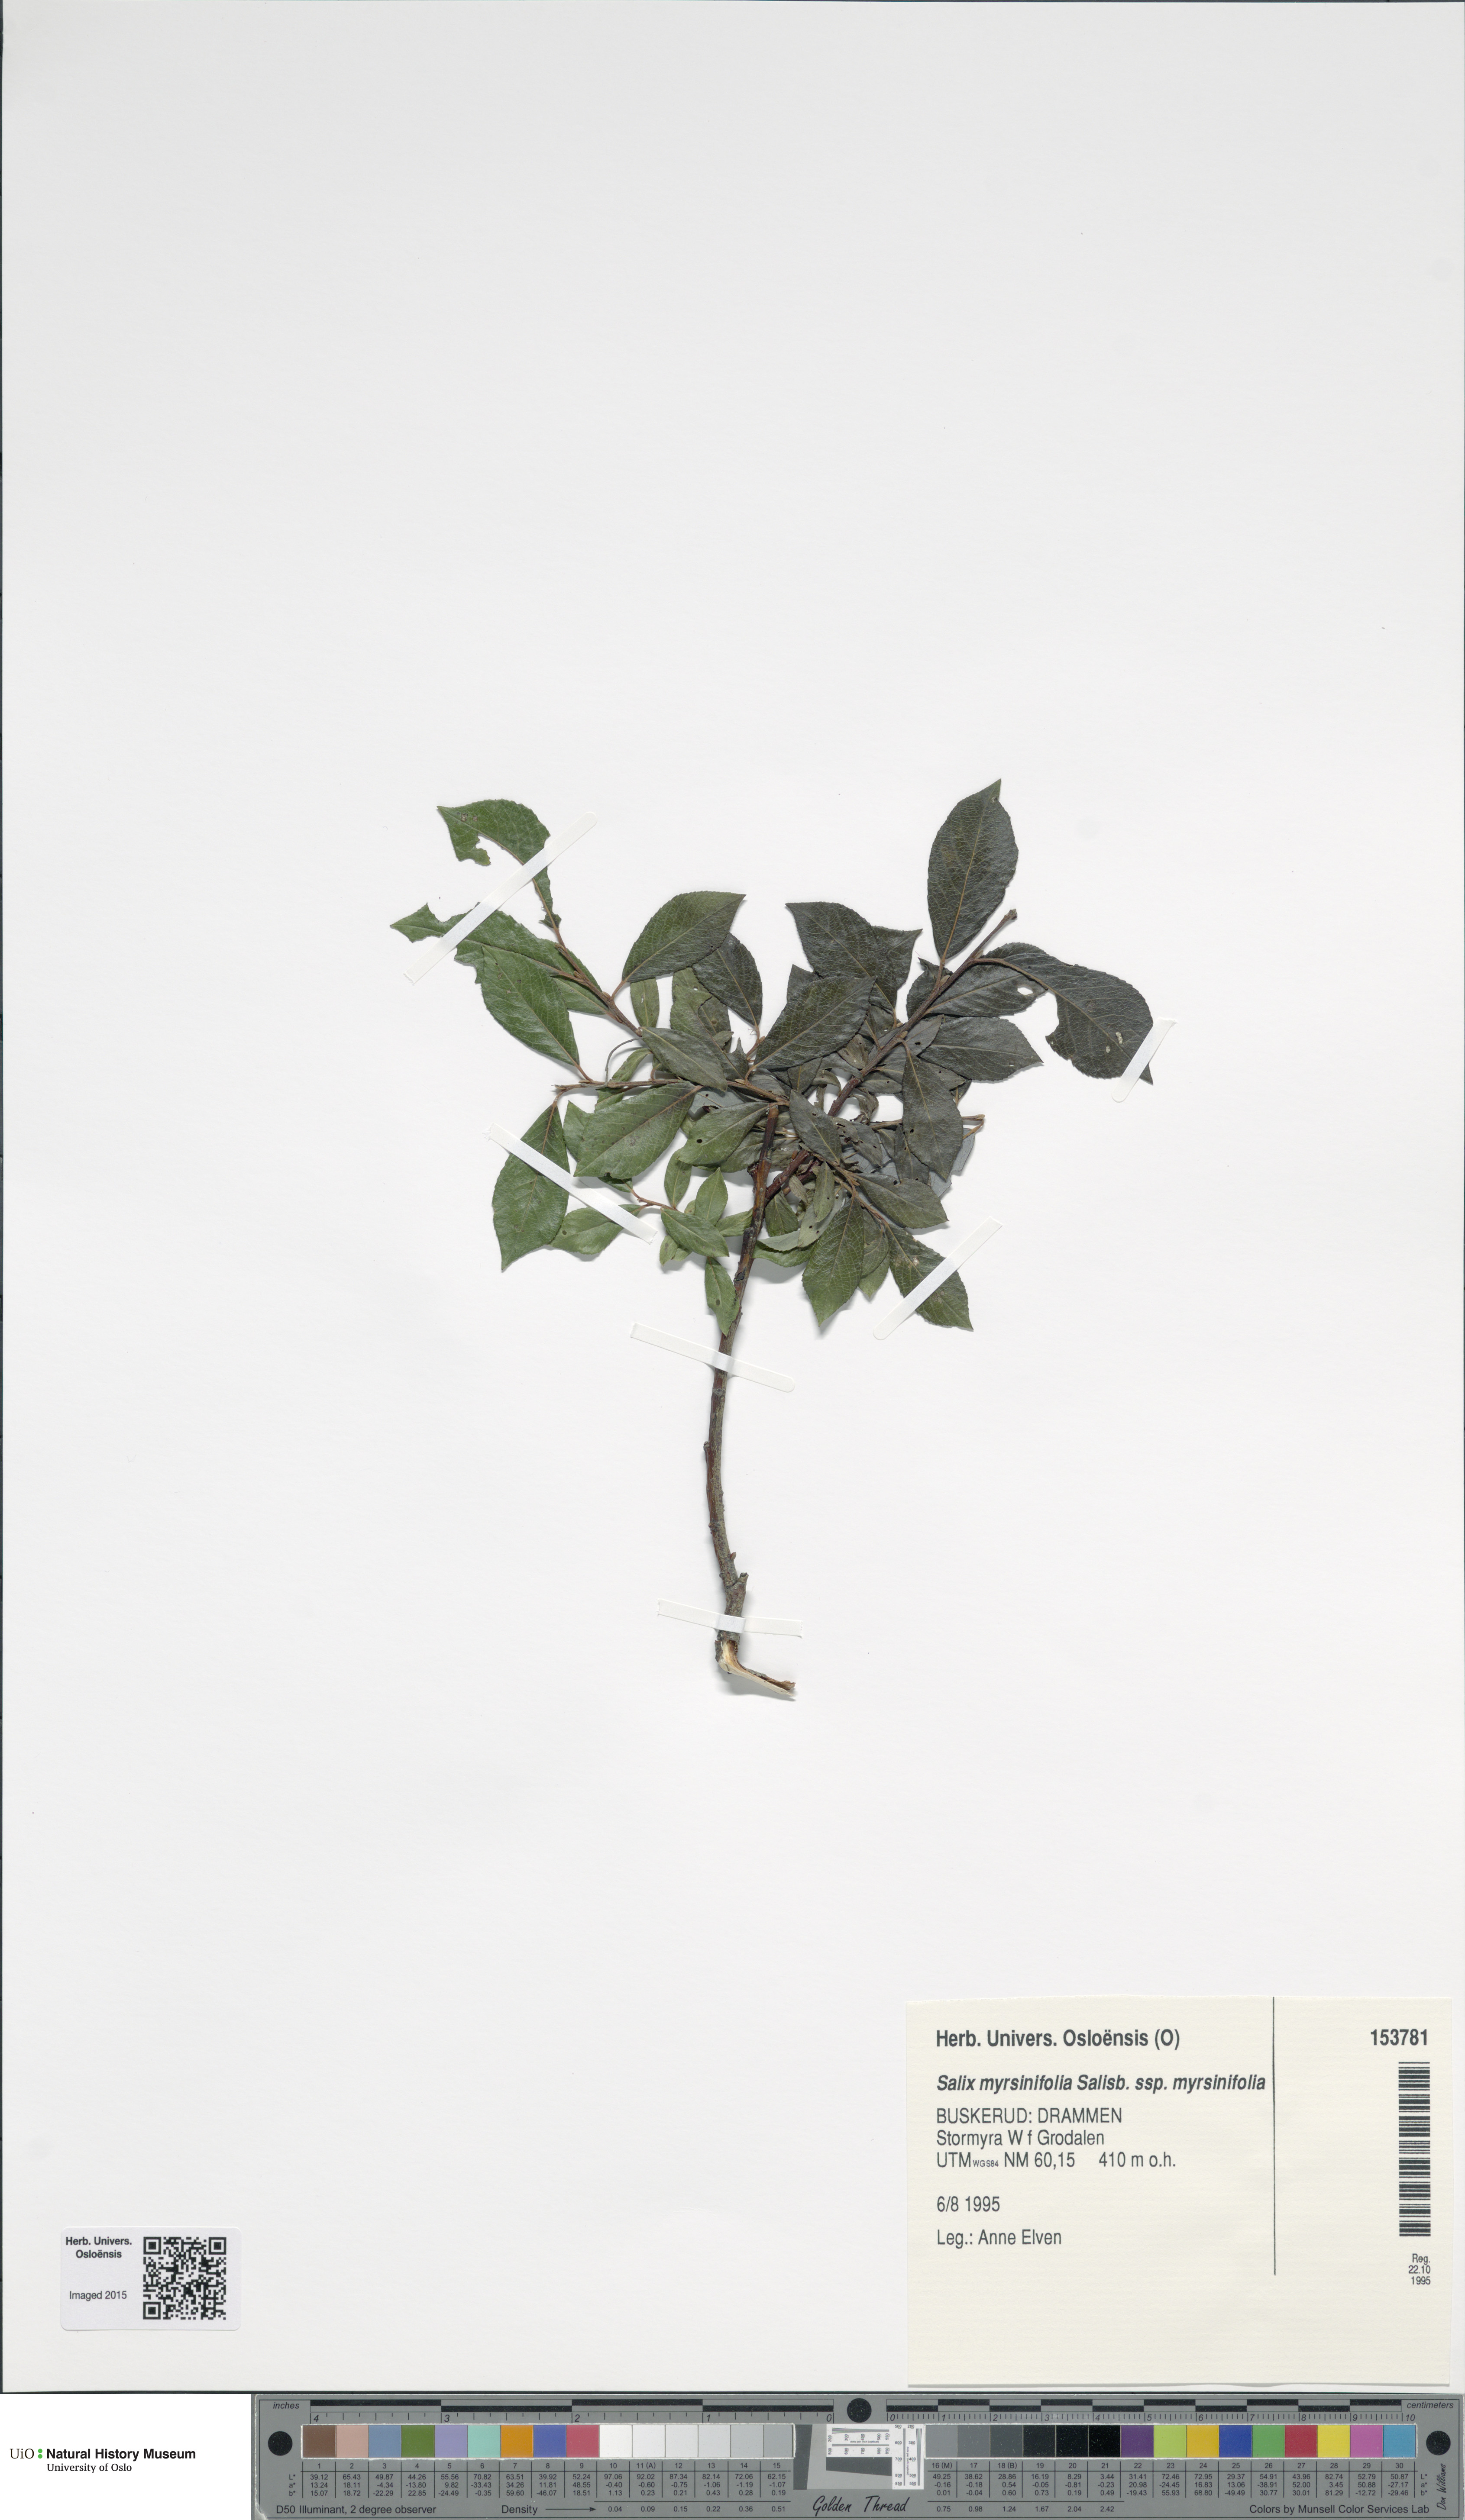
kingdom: Plantae
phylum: Tracheophyta
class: Magnoliopsida
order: Malpighiales
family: Salicaceae
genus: Salix
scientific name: Salix myrsinifolia
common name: Dark-leaved willow
